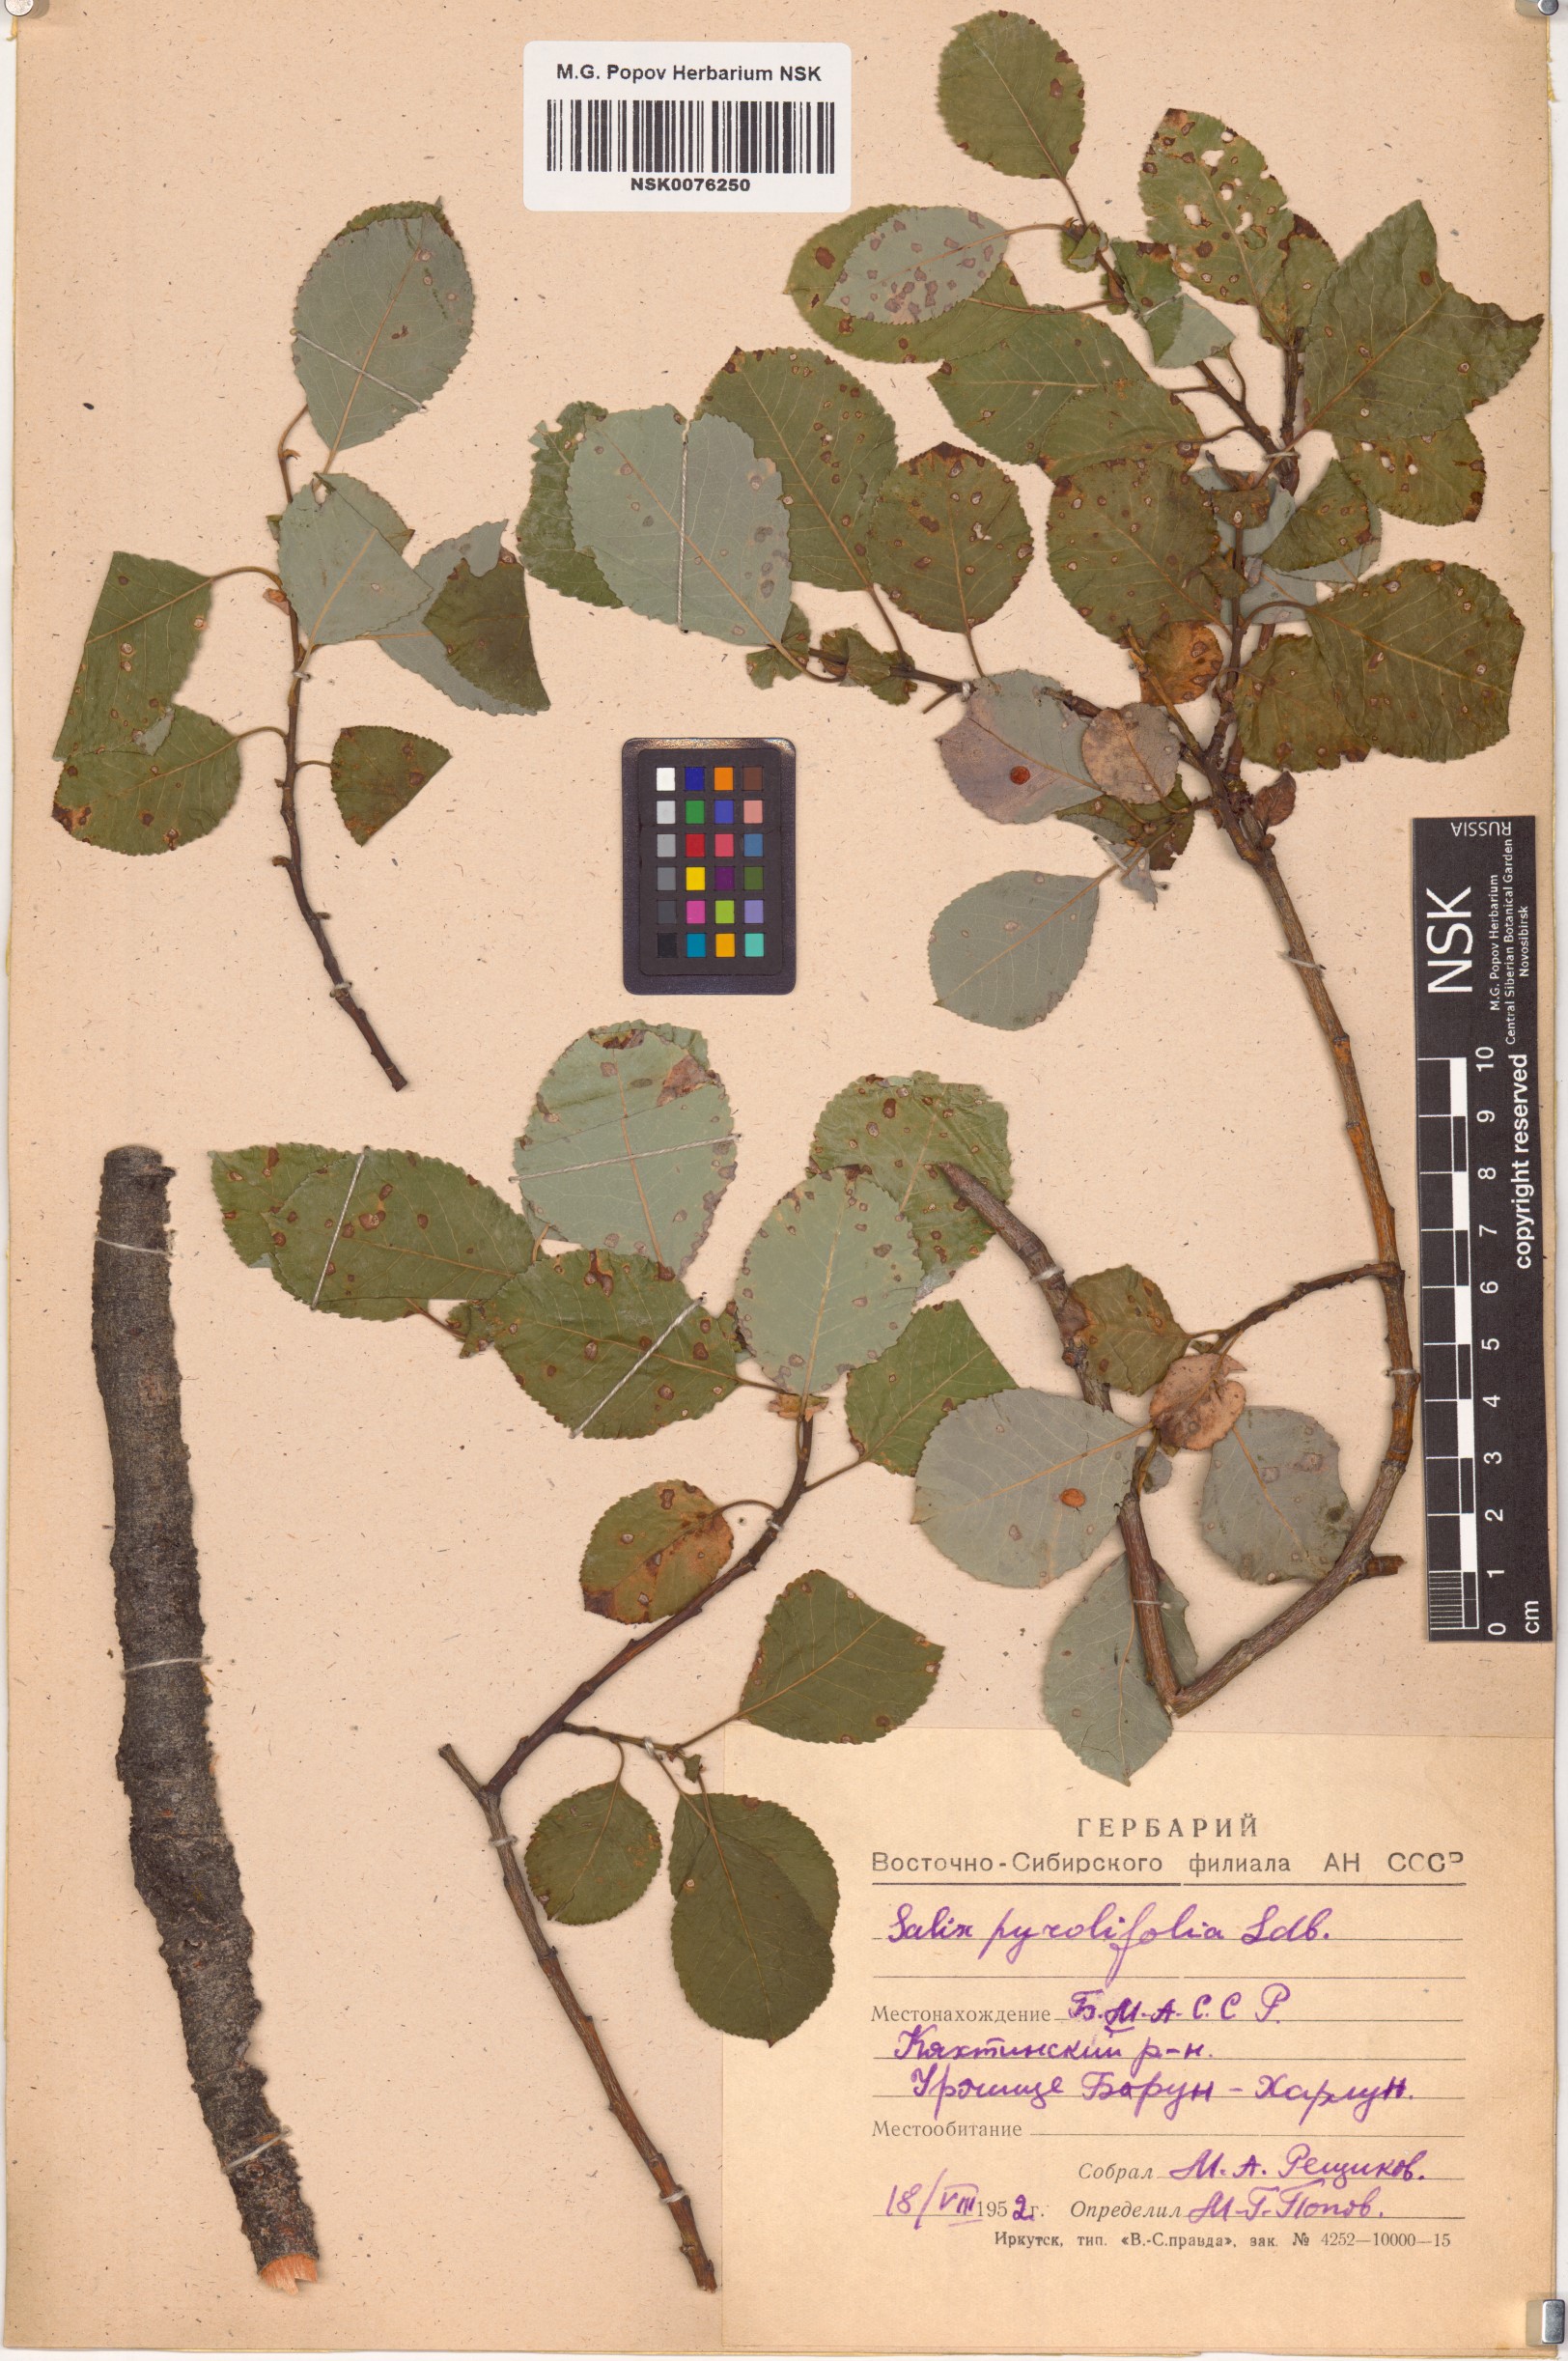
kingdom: Plantae
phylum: Tracheophyta
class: Magnoliopsida
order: Malpighiales
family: Salicaceae
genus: Salix
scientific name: Salix pyrolifolia
